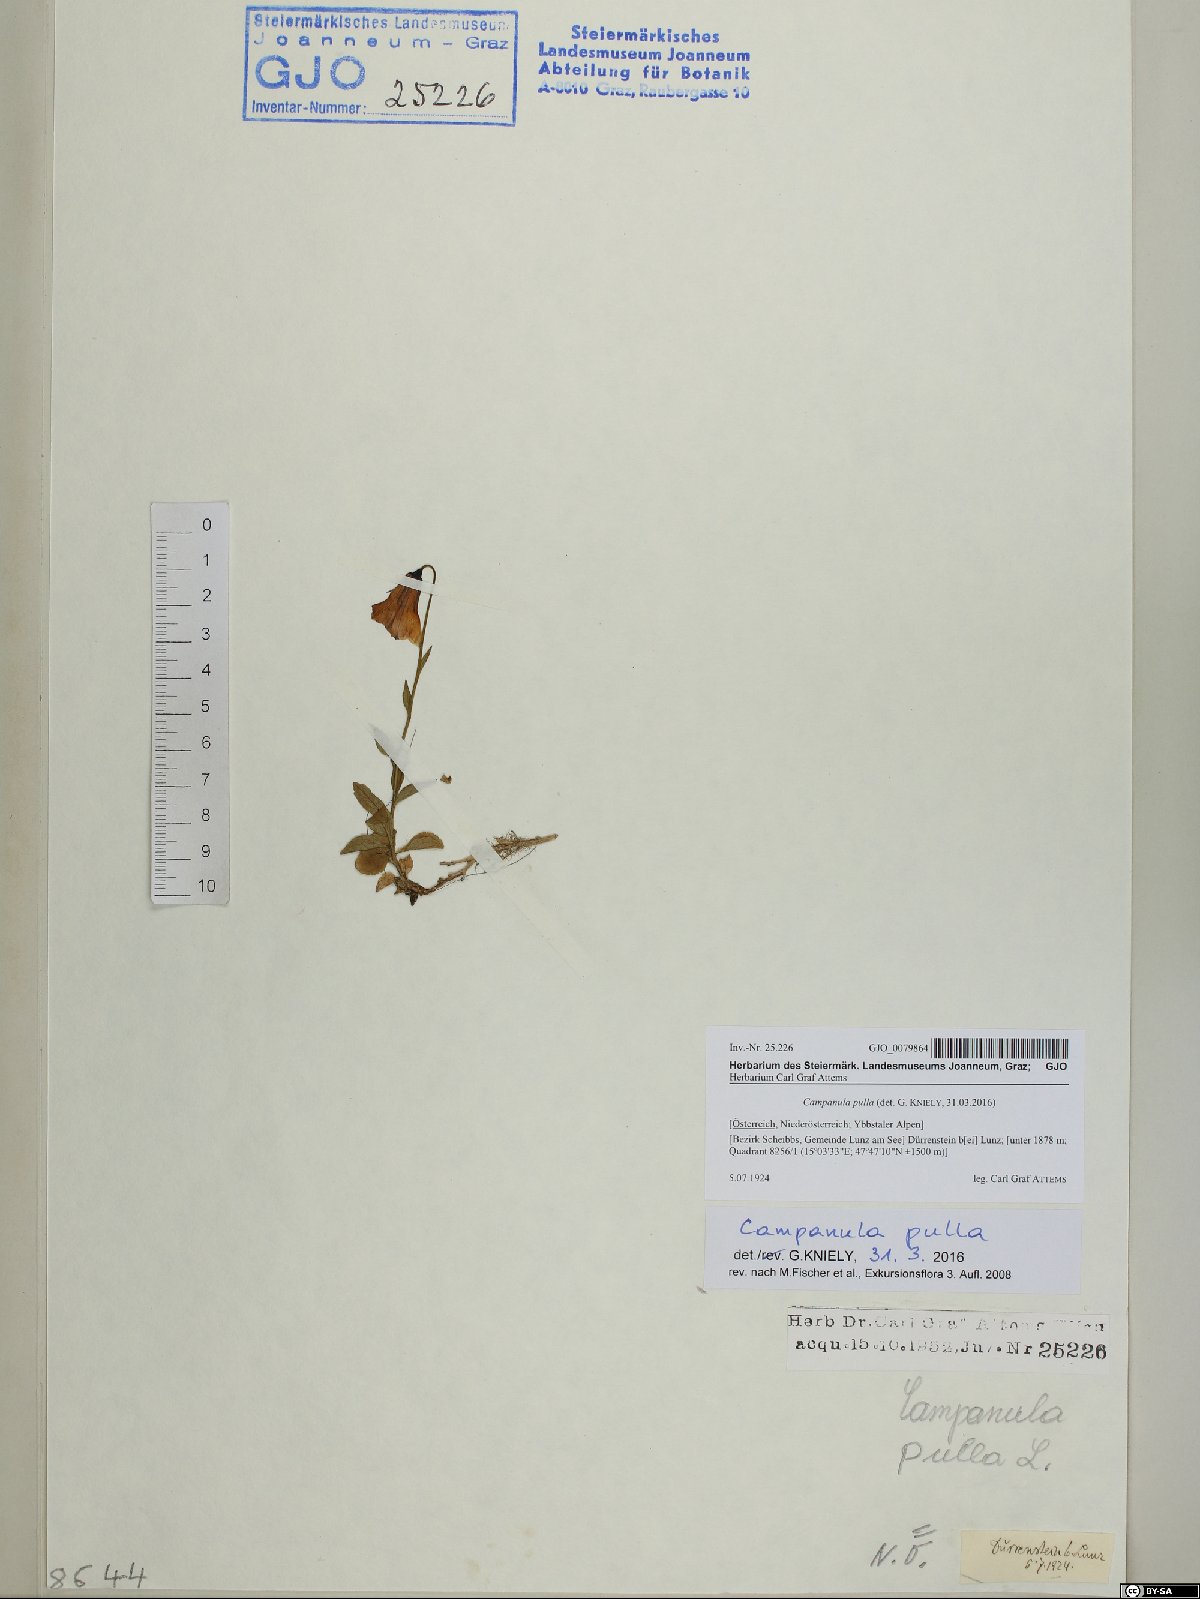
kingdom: Plantae
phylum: Tracheophyta
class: Magnoliopsida
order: Asterales
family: Campanulaceae
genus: Campanula
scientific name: Campanula pulla
